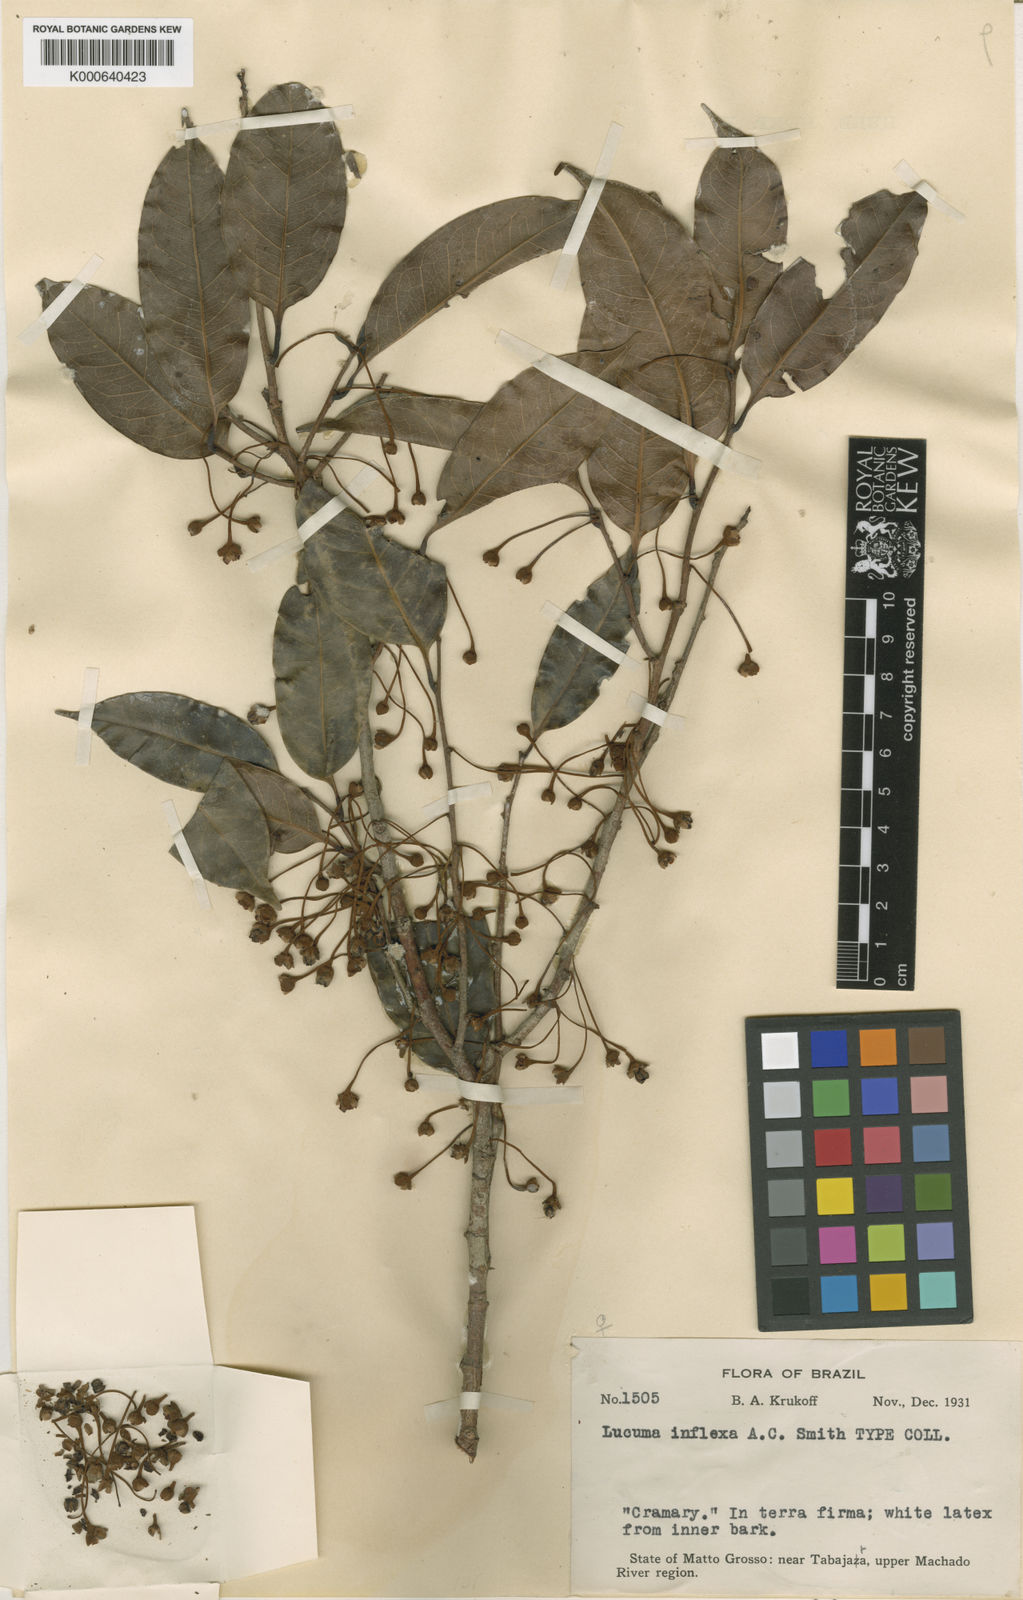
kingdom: Plantae
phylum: Tracheophyta
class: Magnoliopsida
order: Ericales
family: Sapotaceae
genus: Sarcaulus
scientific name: Sarcaulus inflexus
